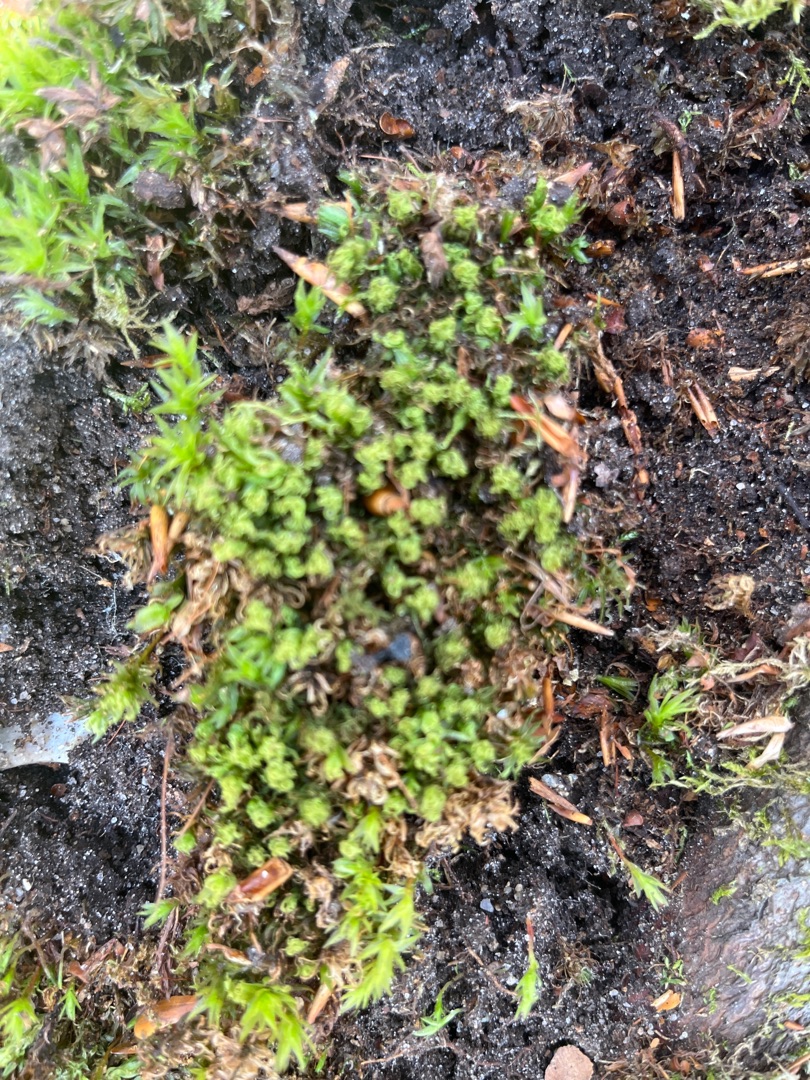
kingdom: Plantae
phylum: Bryophyta
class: Polytrichopsida
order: Polytrichales
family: Polytrichaceae
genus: Atrichum
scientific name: Atrichum undulatum
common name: Bølget katrinemos
